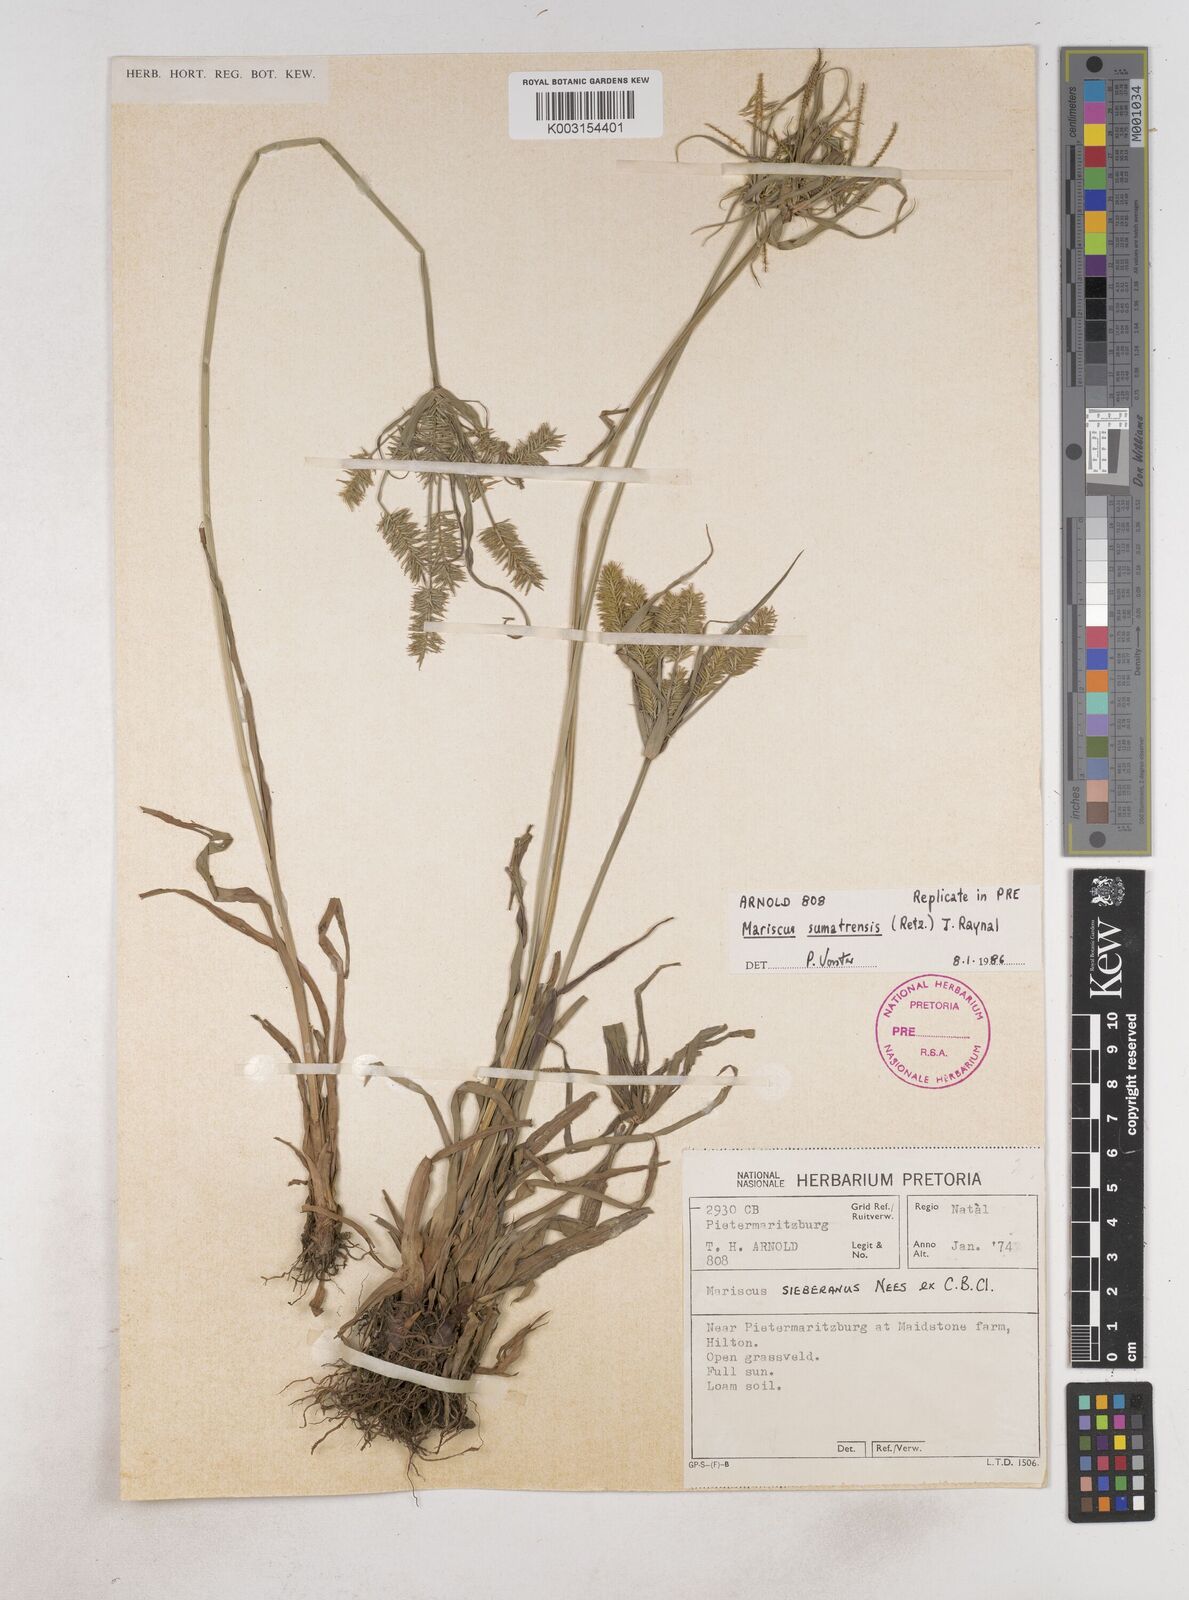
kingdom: Plantae
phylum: Tracheophyta
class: Liliopsida
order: Poales
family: Cyperaceae
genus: Cyperus
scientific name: Cyperus cyperoides
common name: Pacific island flat sedge
